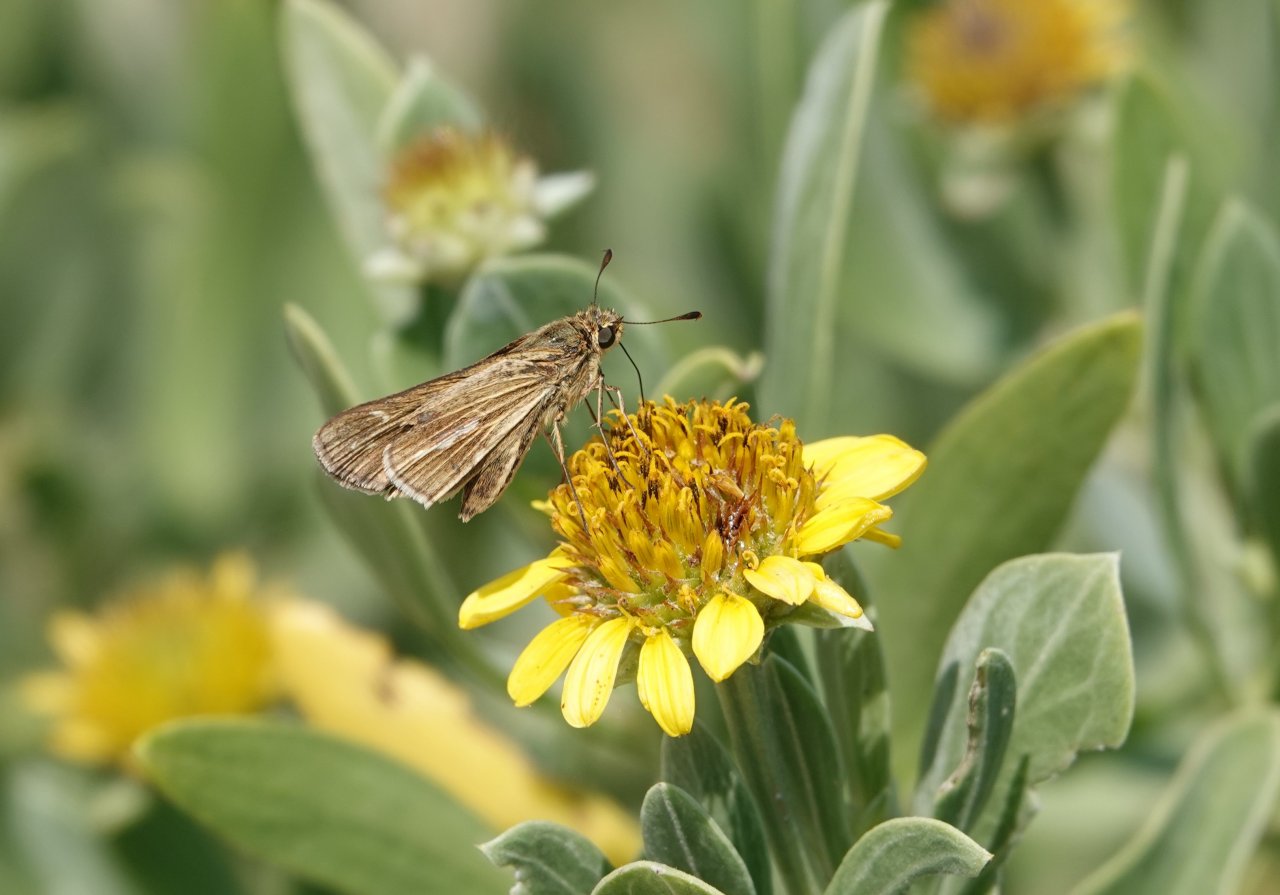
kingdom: Animalia
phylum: Arthropoda
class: Insecta
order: Lepidoptera
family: Hesperiidae
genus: Panoquina
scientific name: Panoquina panoquin
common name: Salt Marsh Skipper
